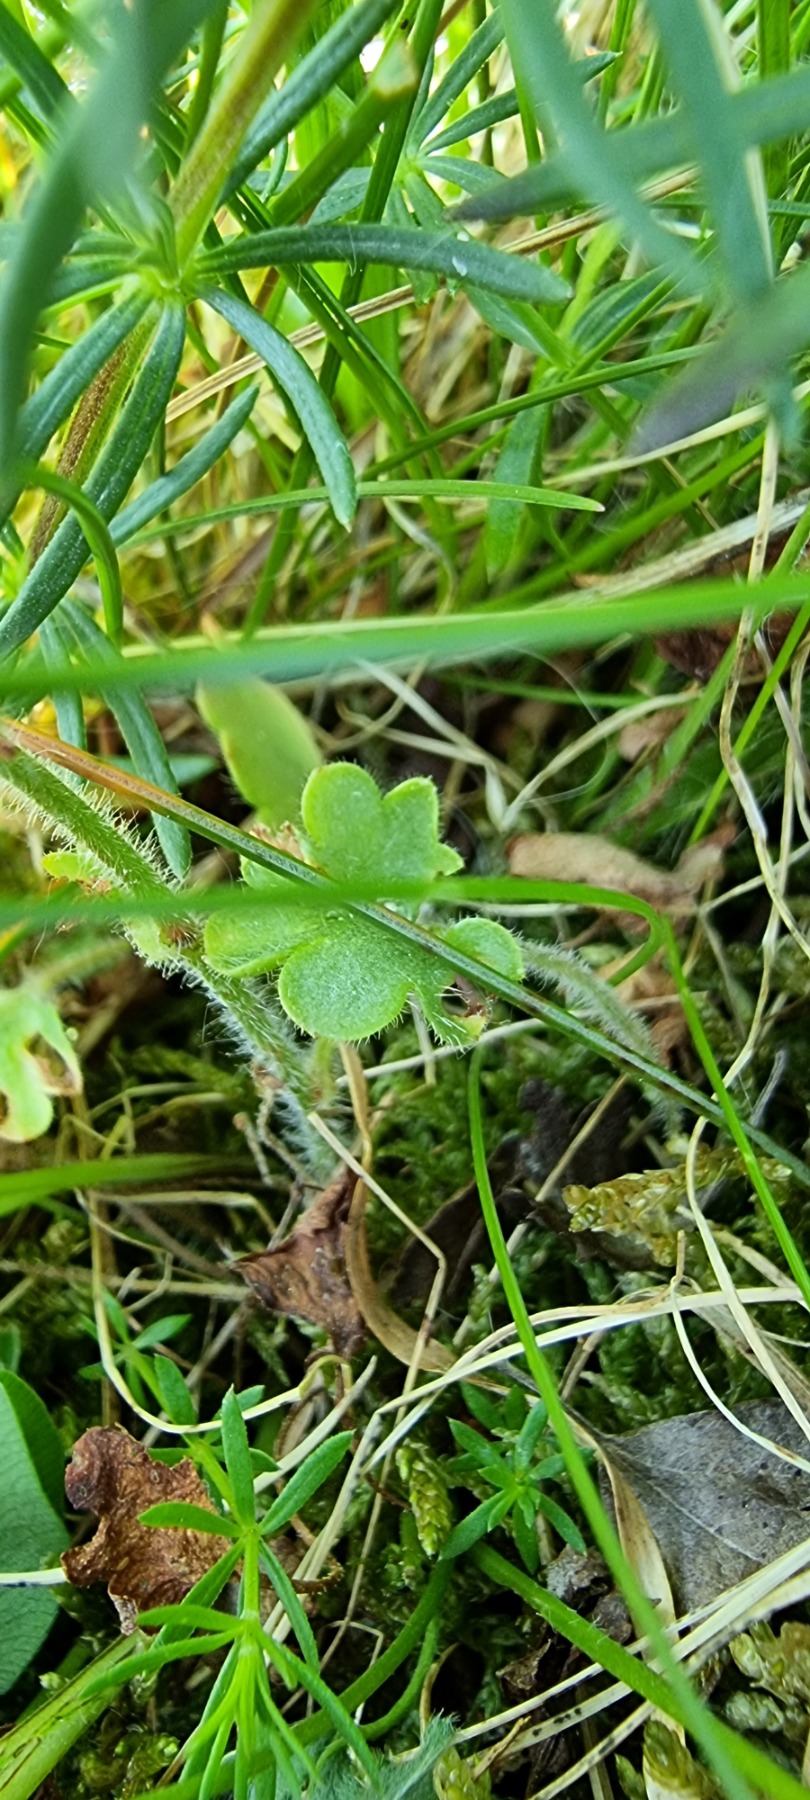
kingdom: Plantae
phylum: Tracheophyta
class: Magnoliopsida
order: Saxifragales
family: Saxifragaceae
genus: Saxifraga
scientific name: Saxifraga granulata
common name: Kornet stenbræk
